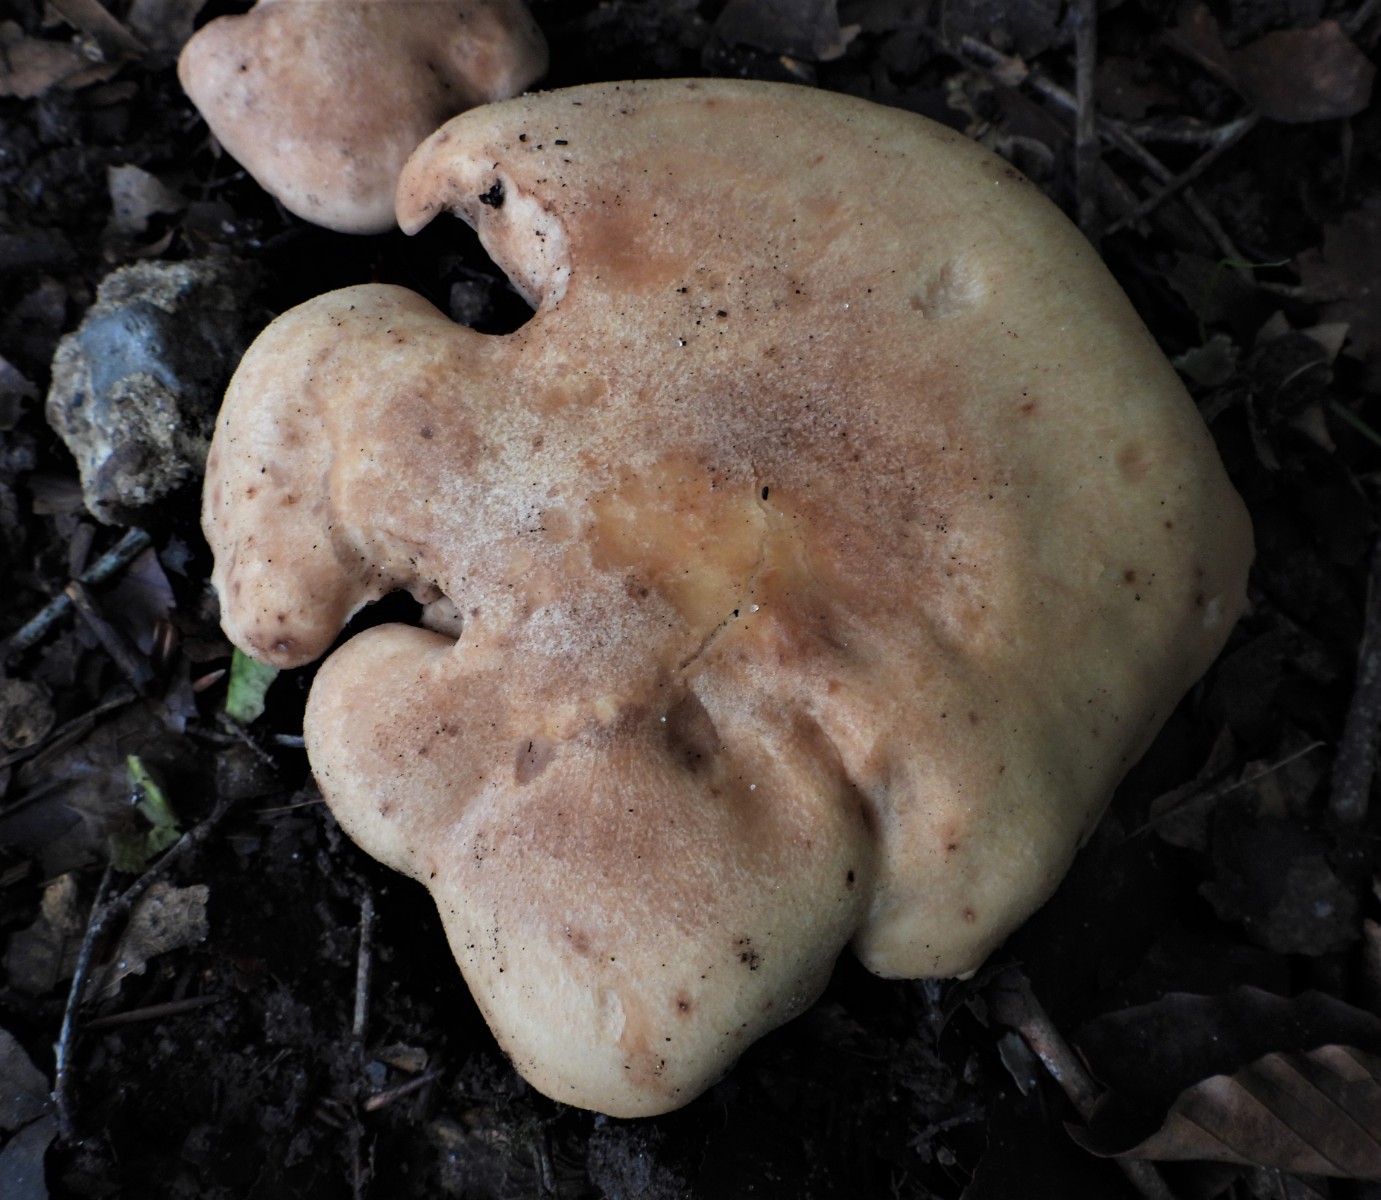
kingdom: Fungi
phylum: Basidiomycota
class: Agaricomycetes
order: Agaricales
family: Entolomataceae
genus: Clitopilus
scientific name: Clitopilus geminus
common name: kødfarvet troldhat
